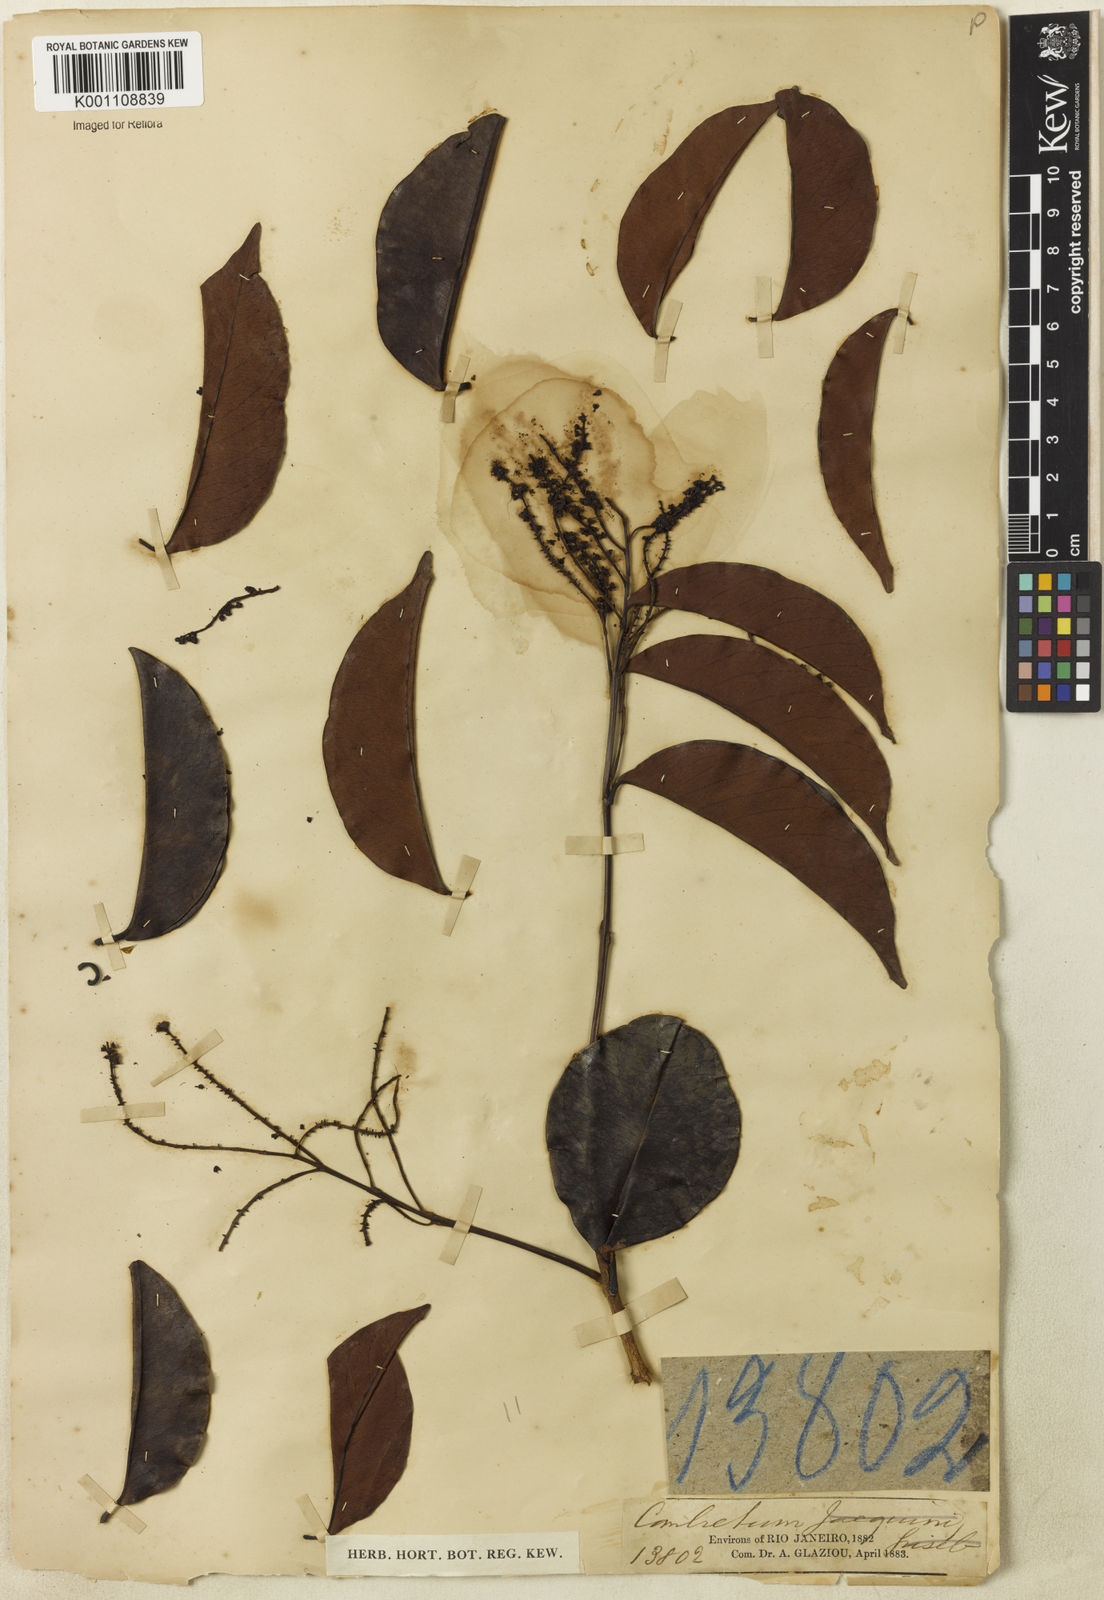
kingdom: Plantae
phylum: Tracheophyta
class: Magnoliopsida
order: Myrtales
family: Combretaceae
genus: Combretum
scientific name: Combretum
